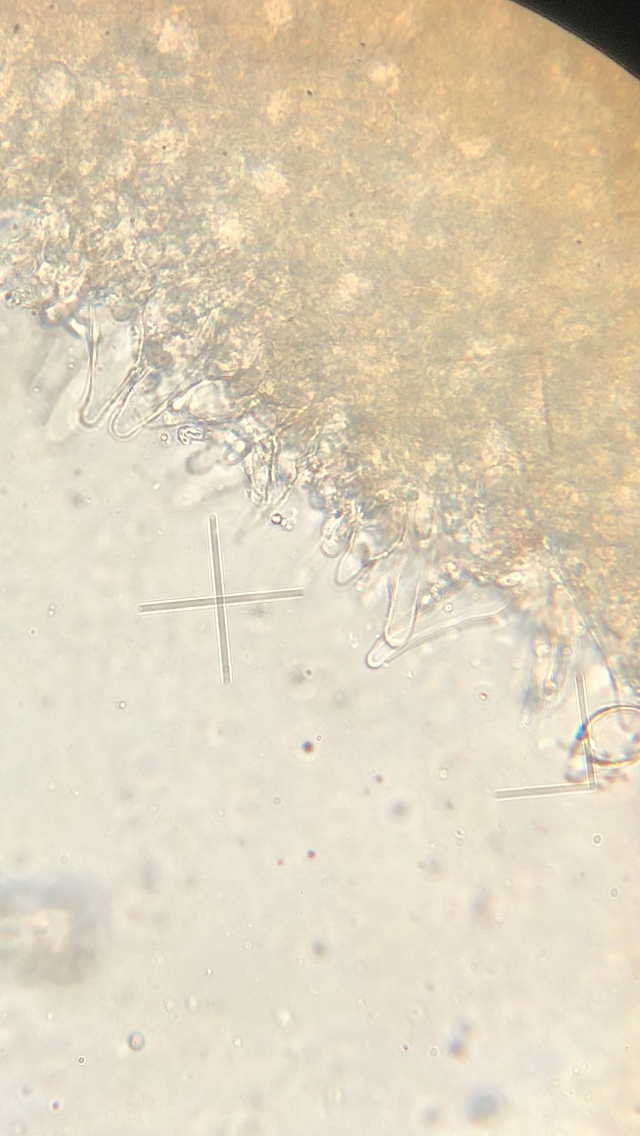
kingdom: Fungi
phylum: Basidiomycota
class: Agaricomycetes
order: Agaricales
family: Mycenaceae
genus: Xeromphalina
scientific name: Xeromphalina campanella
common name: klokke-tørhat
